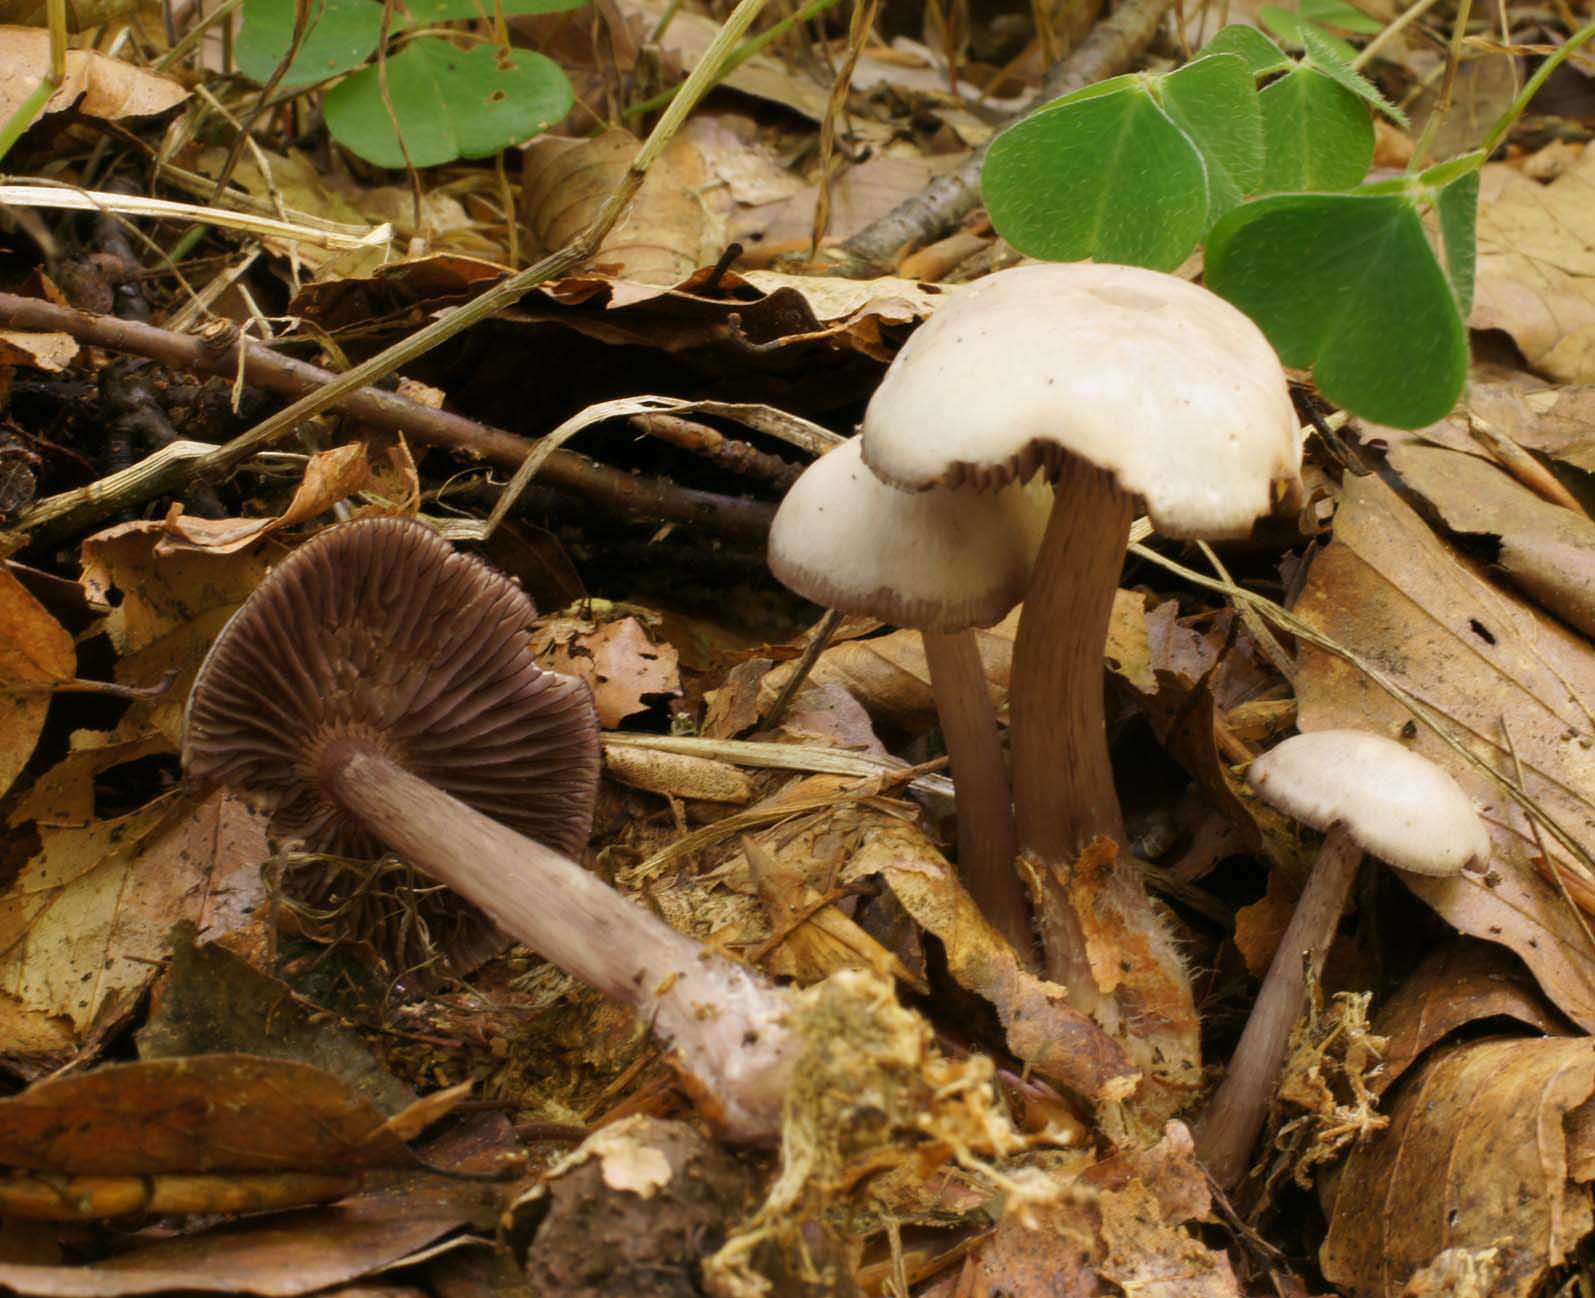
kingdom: Fungi
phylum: Basidiomycota
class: Agaricomycetes
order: Agaricales
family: Mycenaceae
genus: Mycena
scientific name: Mycena pelianthina
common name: mørkbladet huesvamp
